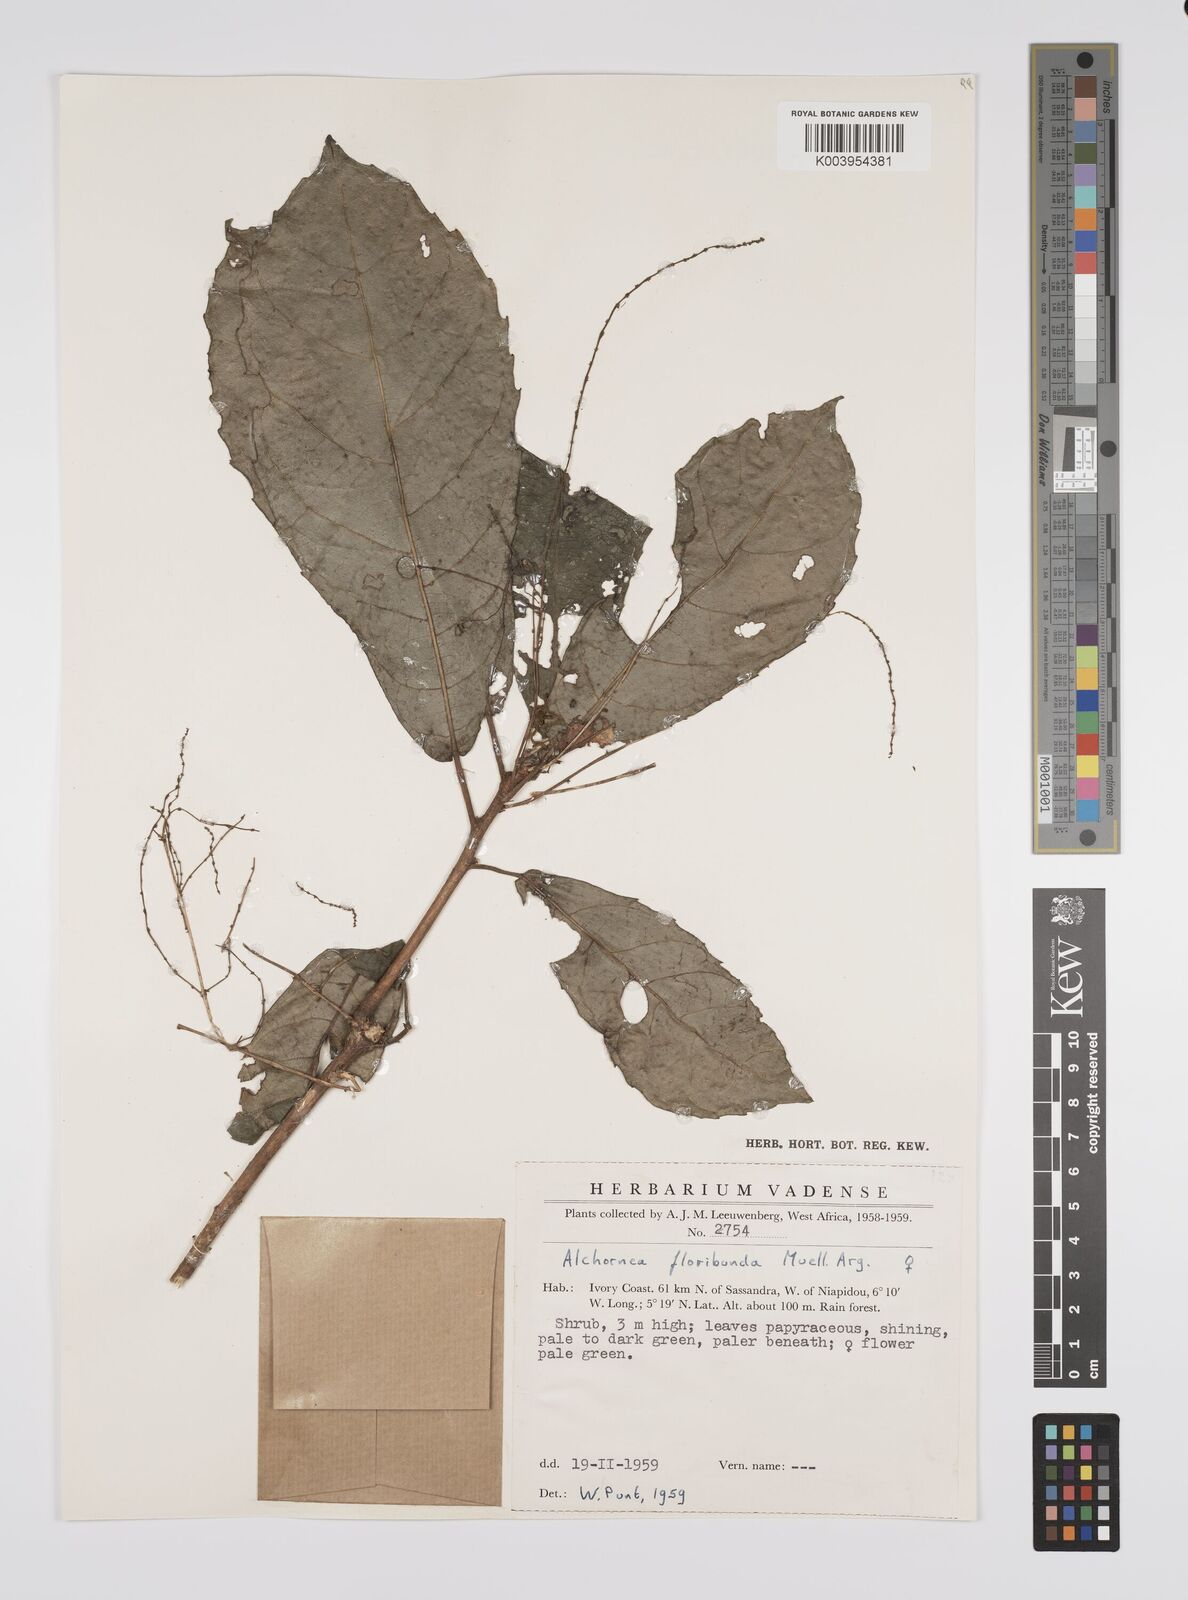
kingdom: Plantae
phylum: Tracheophyta
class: Magnoliopsida
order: Malpighiales
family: Euphorbiaceae
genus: Alchornea
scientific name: Alchornea floribunda
